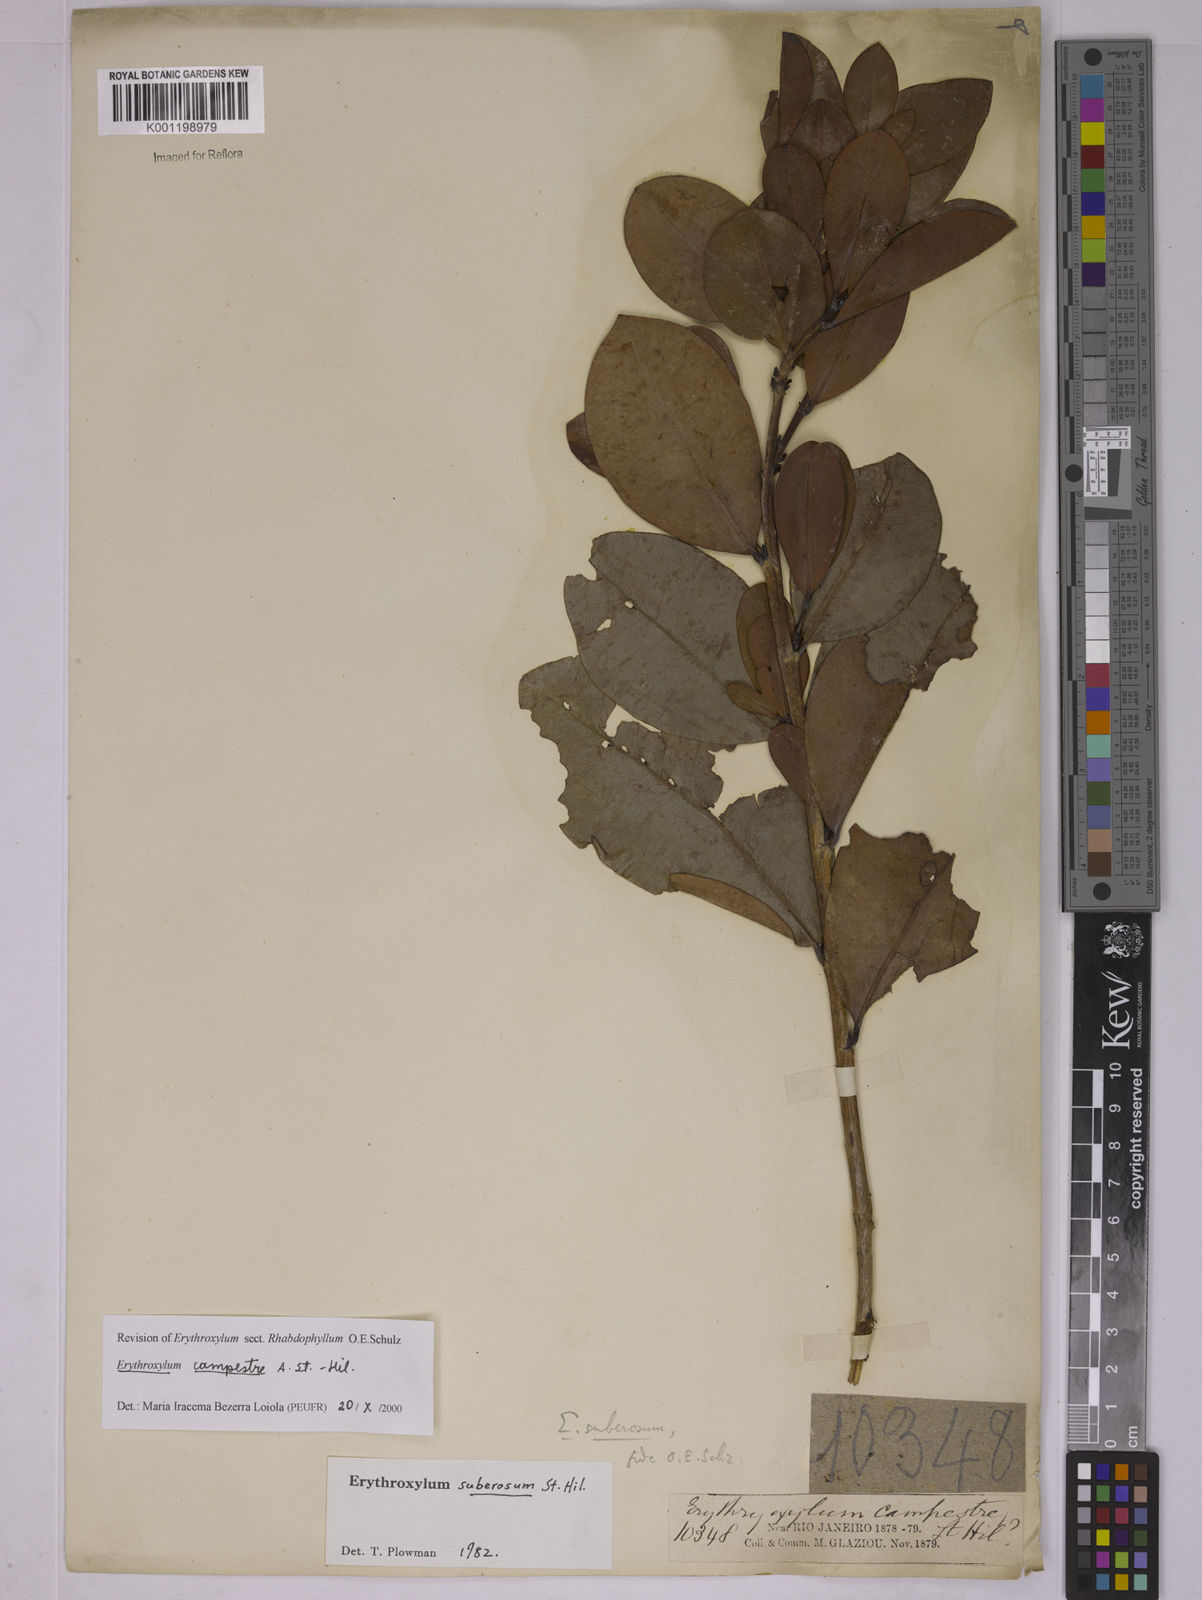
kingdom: Plantae
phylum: Tracheophyta
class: Magnoliopsida
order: Malpighiales
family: Erythroxylaceae
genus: Erythroxylum
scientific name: Erythroxylum campestre
